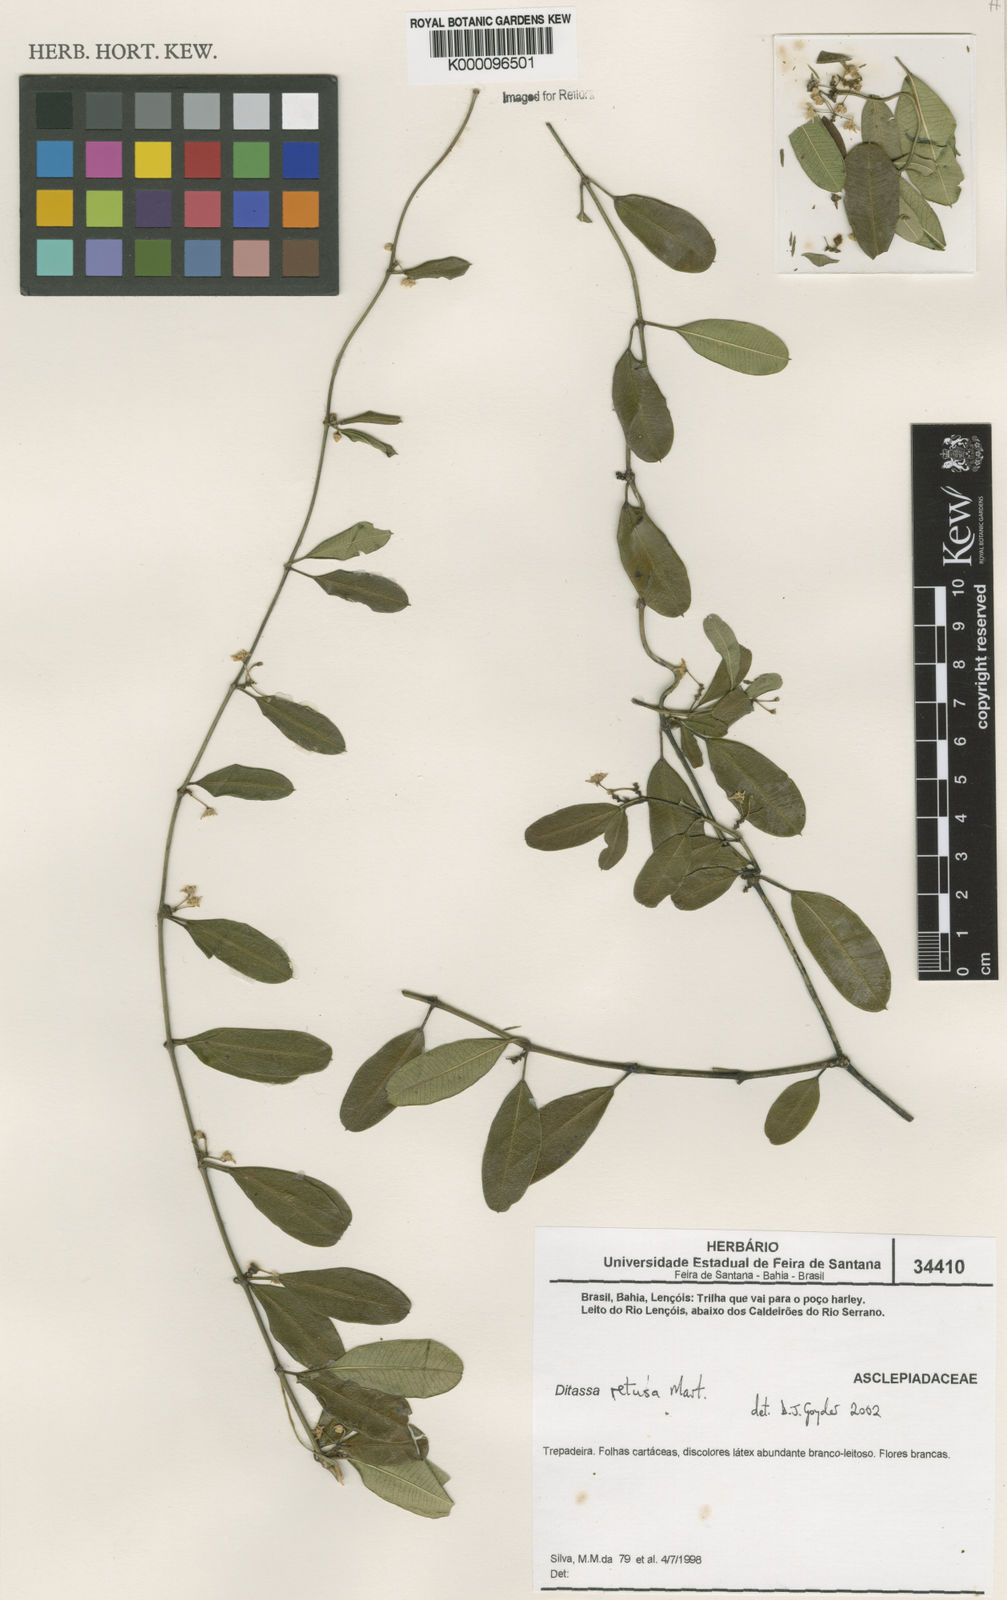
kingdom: Plantae
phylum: Tracheophyta
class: Magnoliopsida
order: Gentianales
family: Apocynaceae
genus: Ditassa
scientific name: Ditassa retusa
